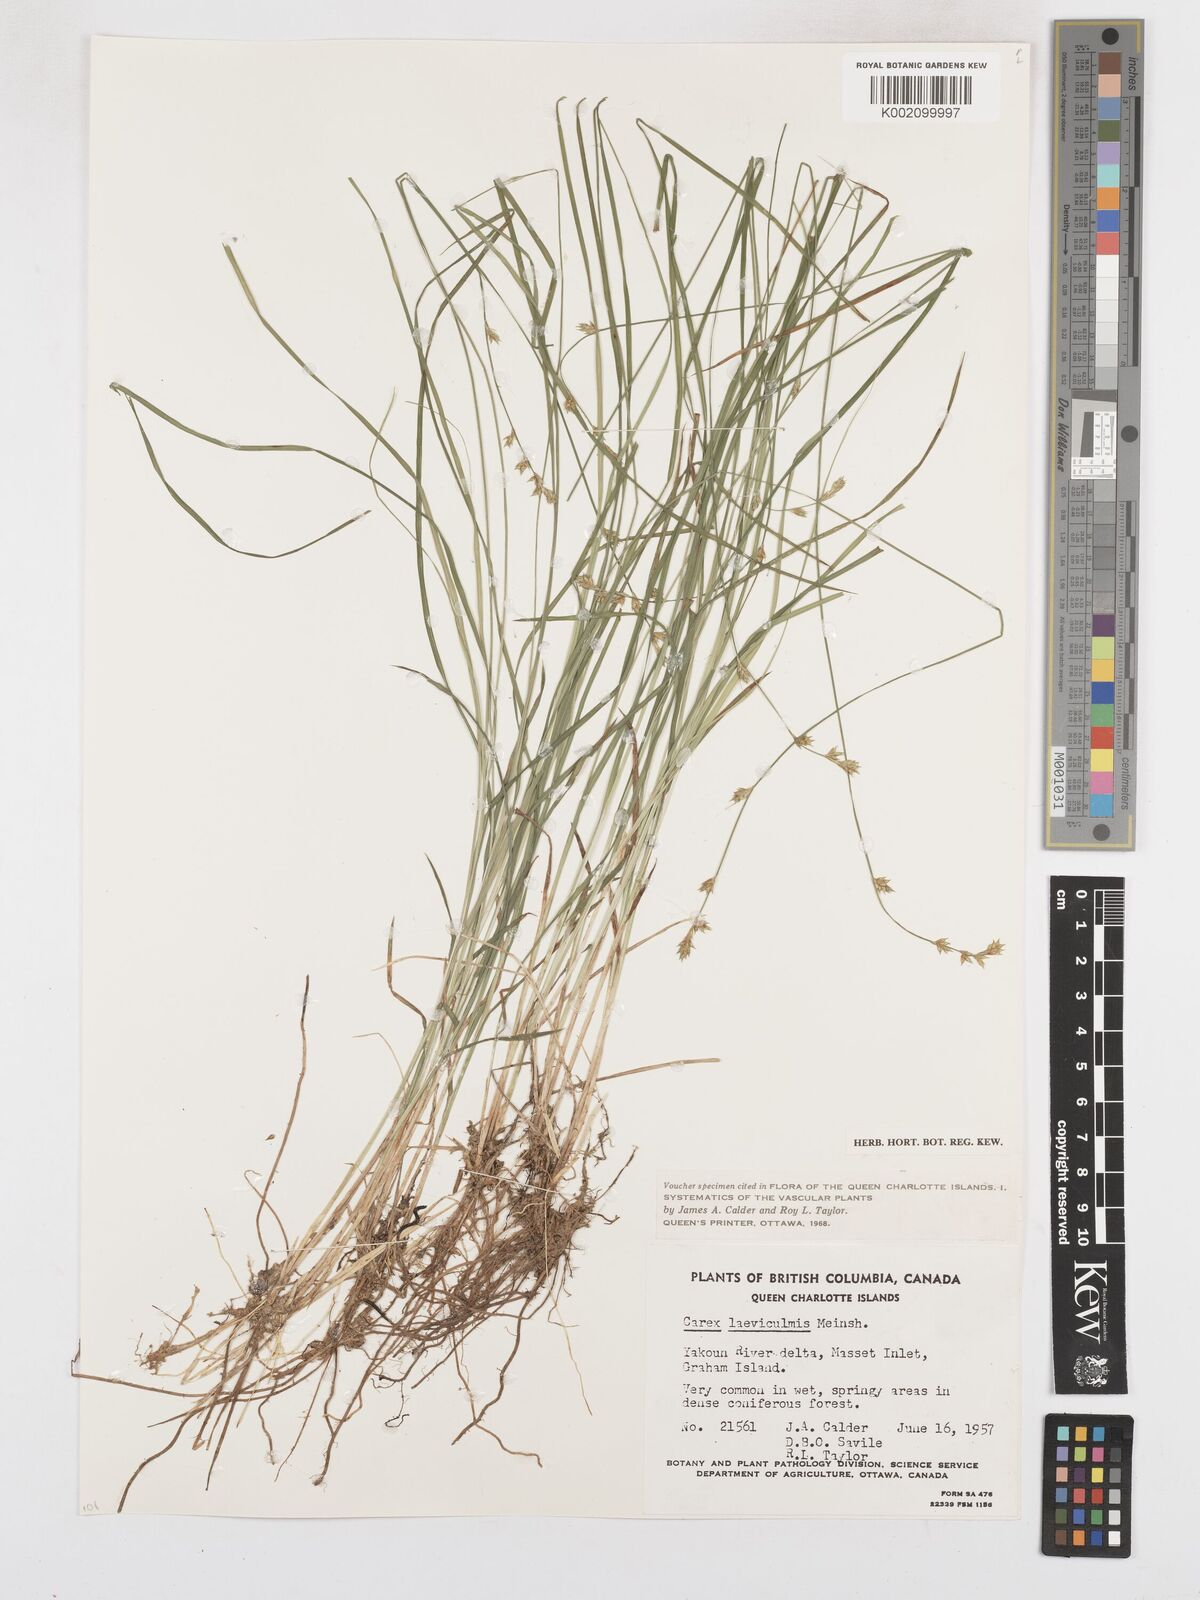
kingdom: Plantae
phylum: Tracheophyta
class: Liliopsida
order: Poales
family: Cyperaceae
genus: Carex
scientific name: Carex laeviculmis
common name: Smooth sedge
